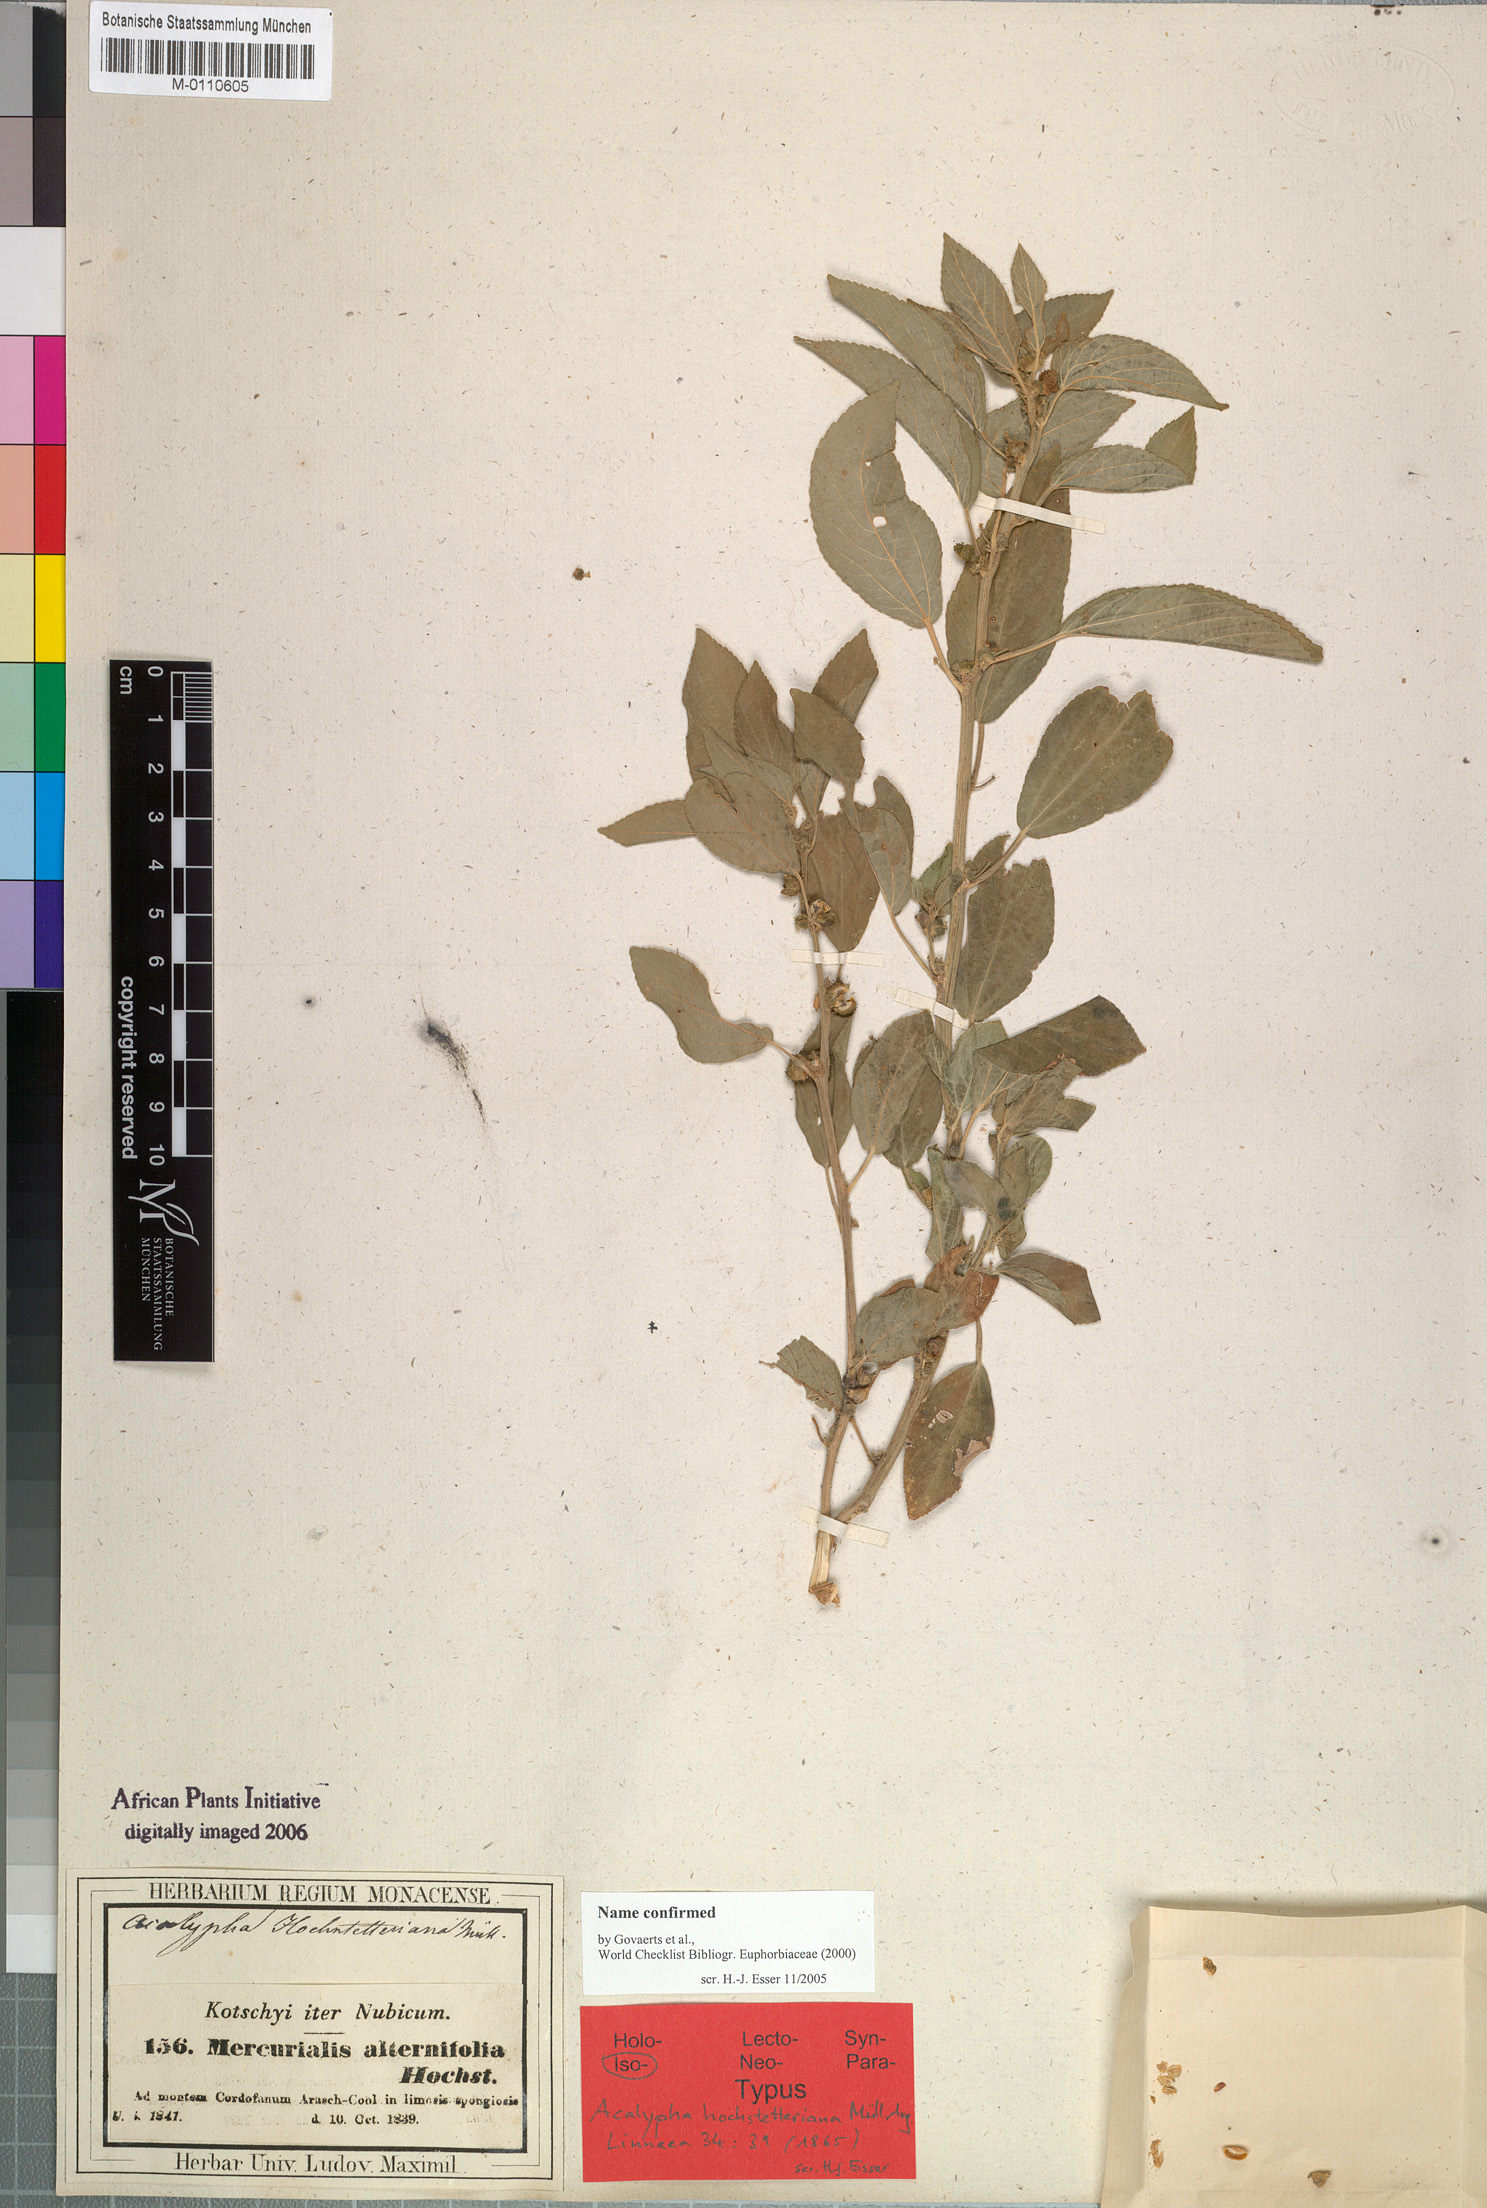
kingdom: Plantae
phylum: Tracheophyta
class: Magnoliopsida
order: Malpighiales
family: Euphorbiaceae
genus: Acalypha
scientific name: Acalypha hochstetteriana
